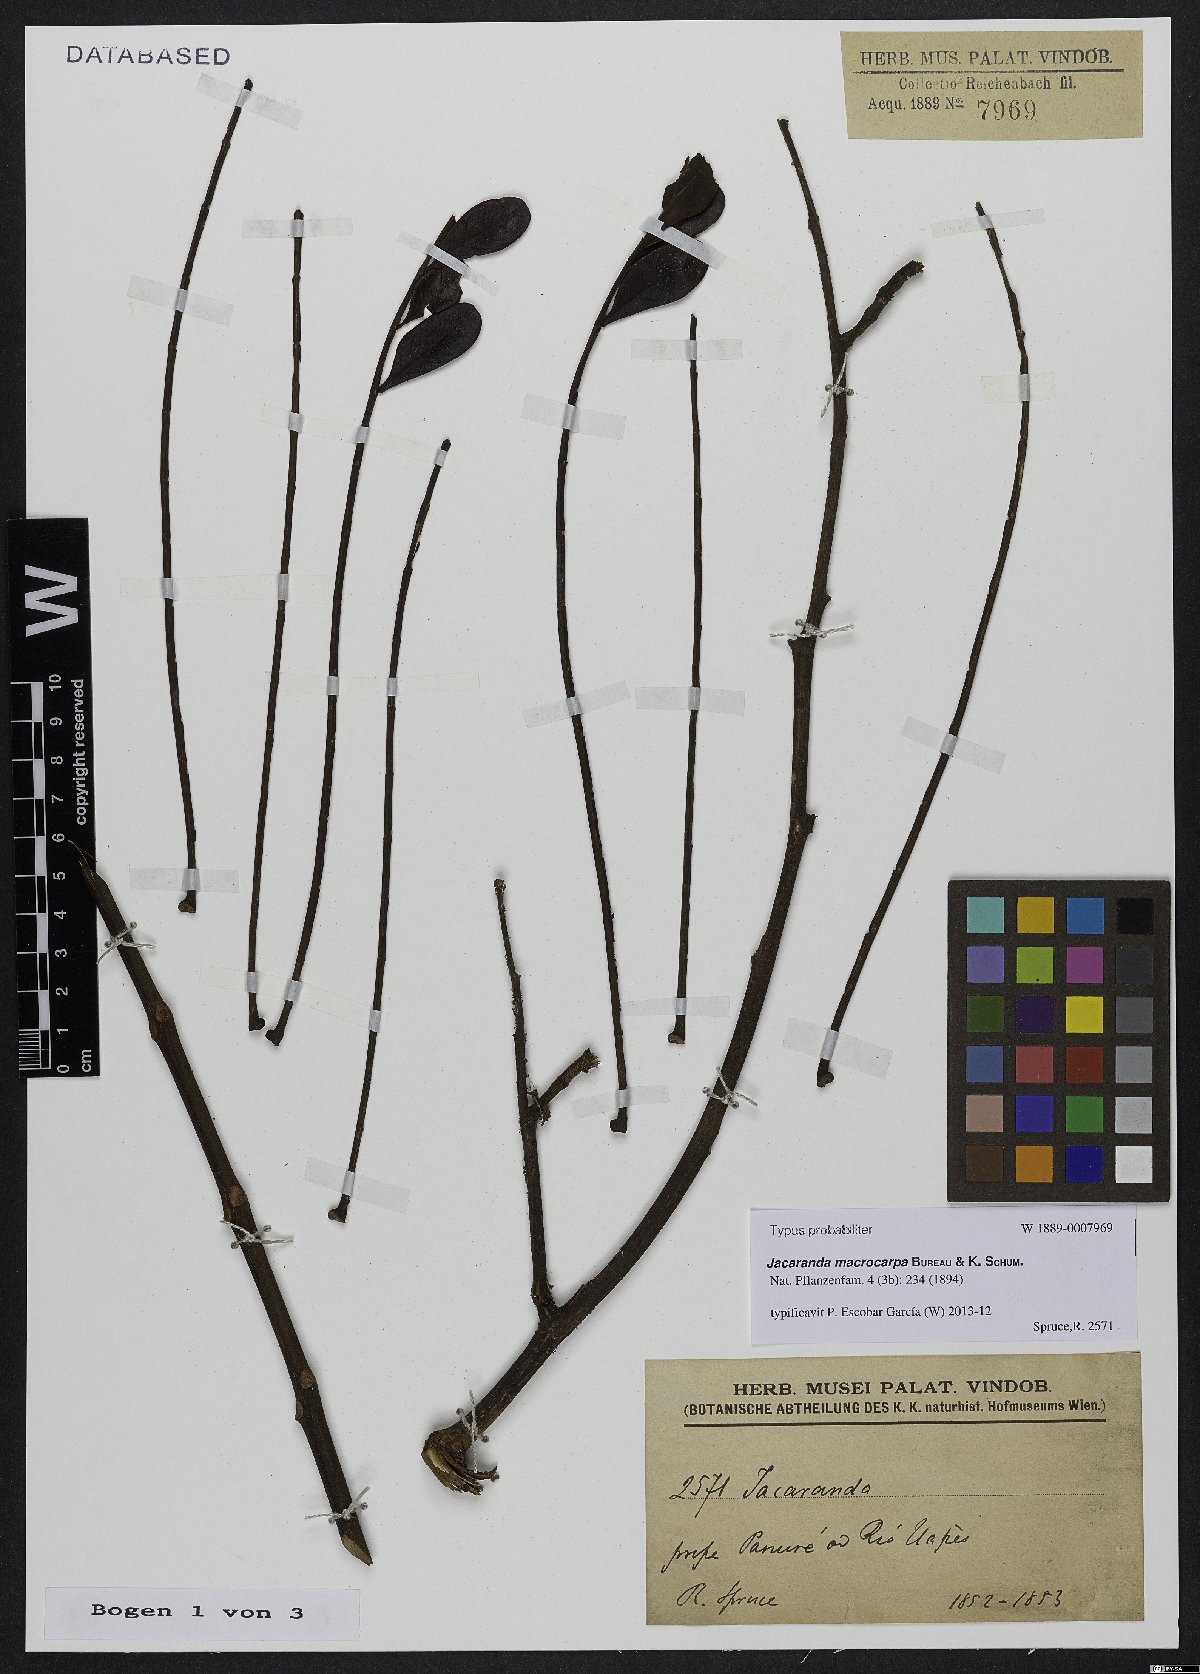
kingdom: Plantae
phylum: Tracheophyta
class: Magnoliopsida
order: Lamiales
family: Bignoniaceae
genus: Jacaranda
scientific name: Jacaranda macrocarpa
